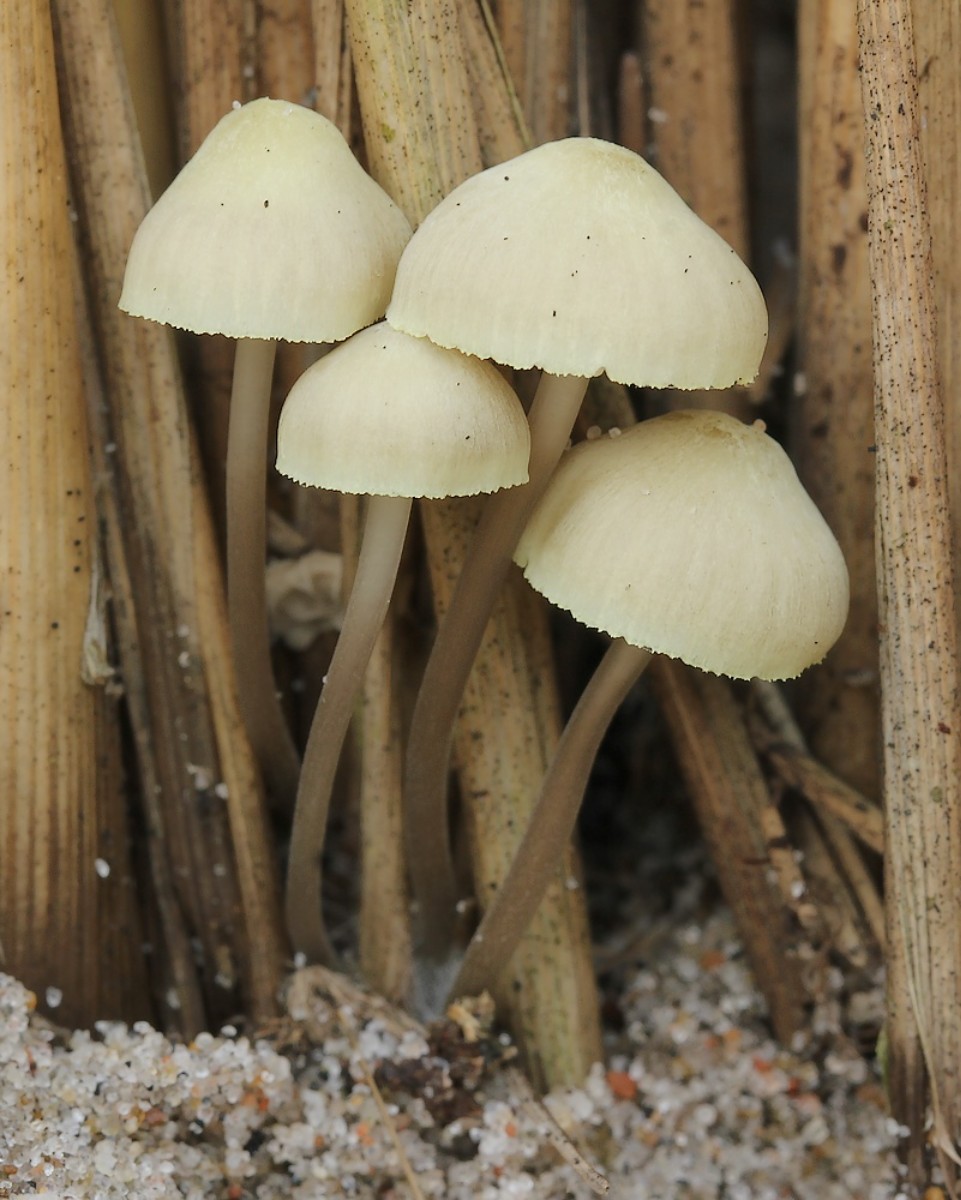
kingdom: Fungi
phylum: Basidiomycota
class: Agaricomycetes
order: Agaricales
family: Mycenaceae
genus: Mycena
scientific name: Mycena chlorantha
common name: klit-huesvamp
